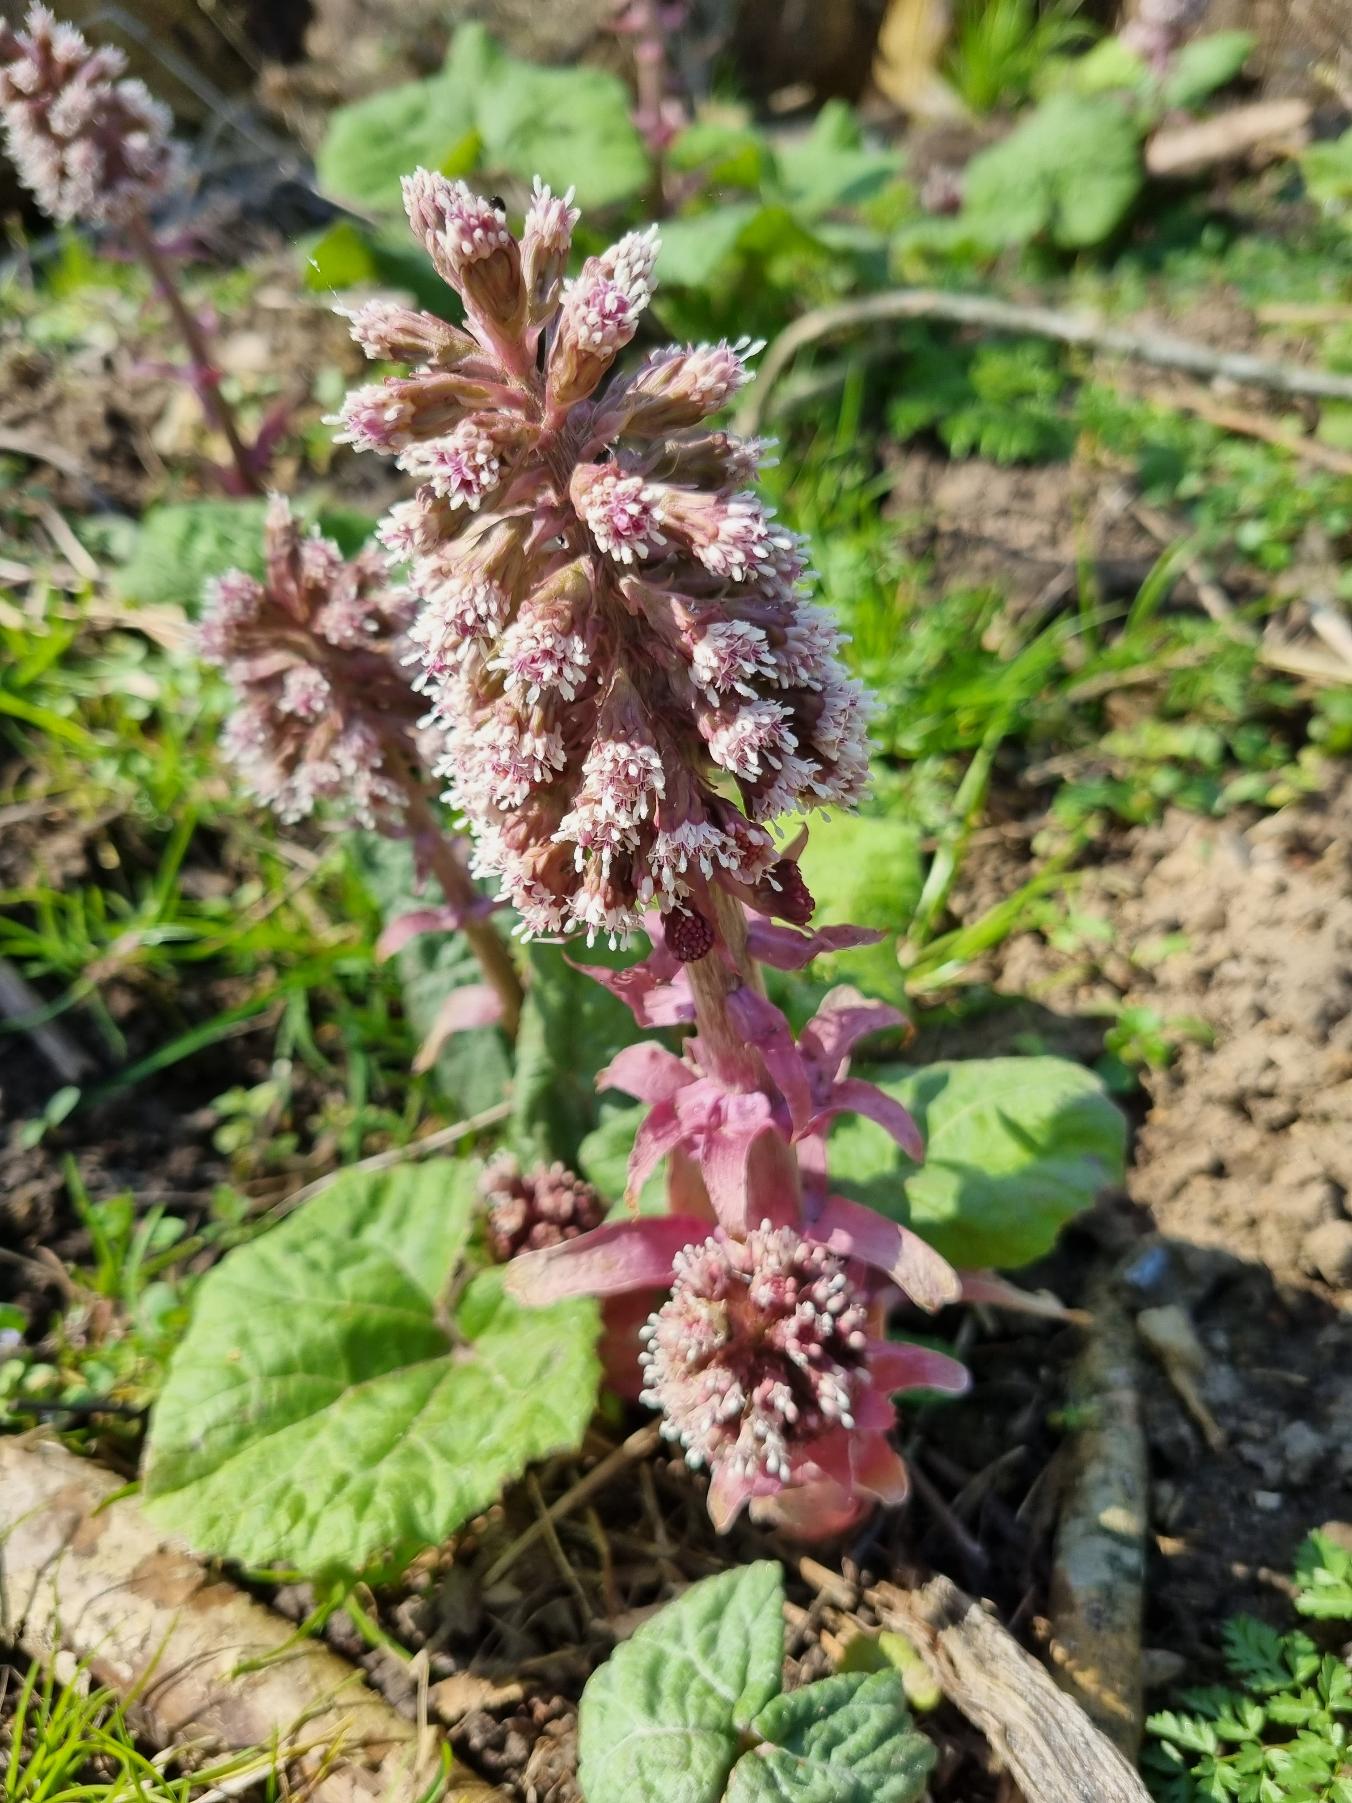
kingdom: Plantae
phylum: Tracheophyta
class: Magnoliopsida
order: Asterales
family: Asteraceae
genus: Petasites
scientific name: Petasites hybridus
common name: Rød hestehov
